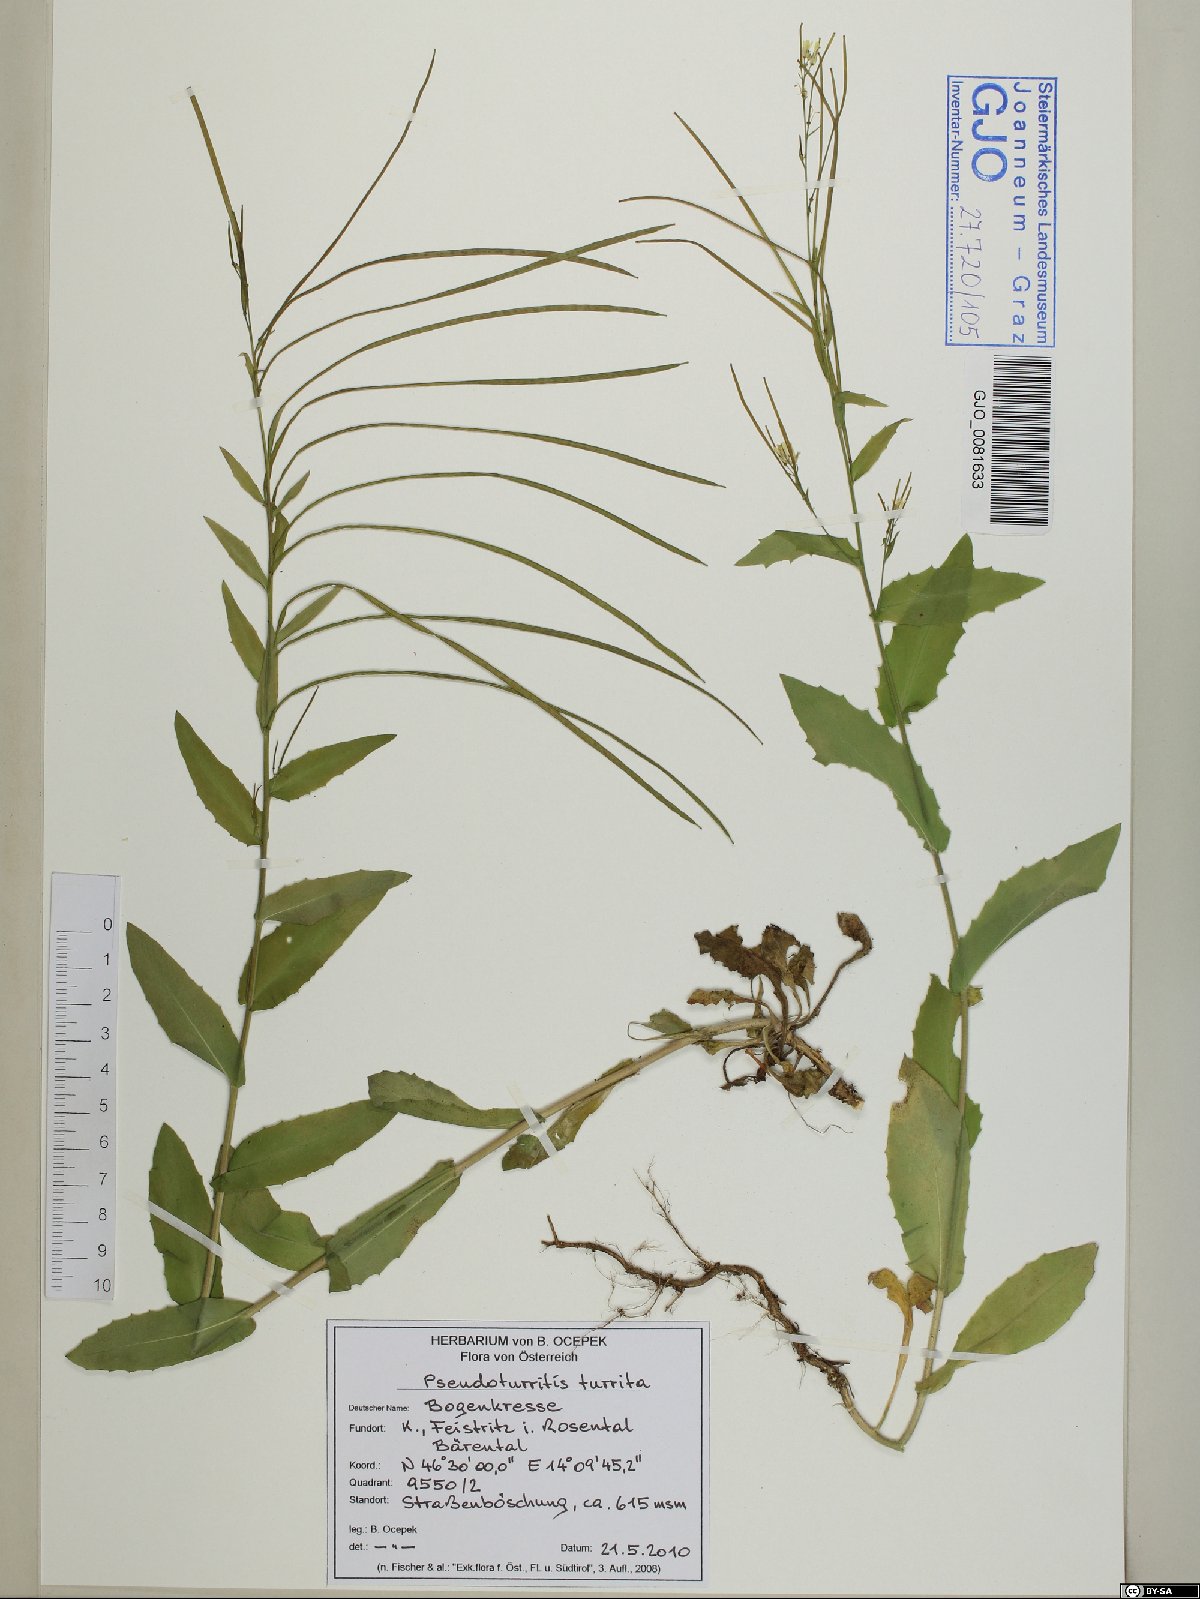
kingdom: Plantae
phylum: Tracheophyta
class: Magnoliopsida
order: Brassicales
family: Brassicaceae
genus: Pseudoturritis
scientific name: Pseudoturritis turrita
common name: Tower cress
